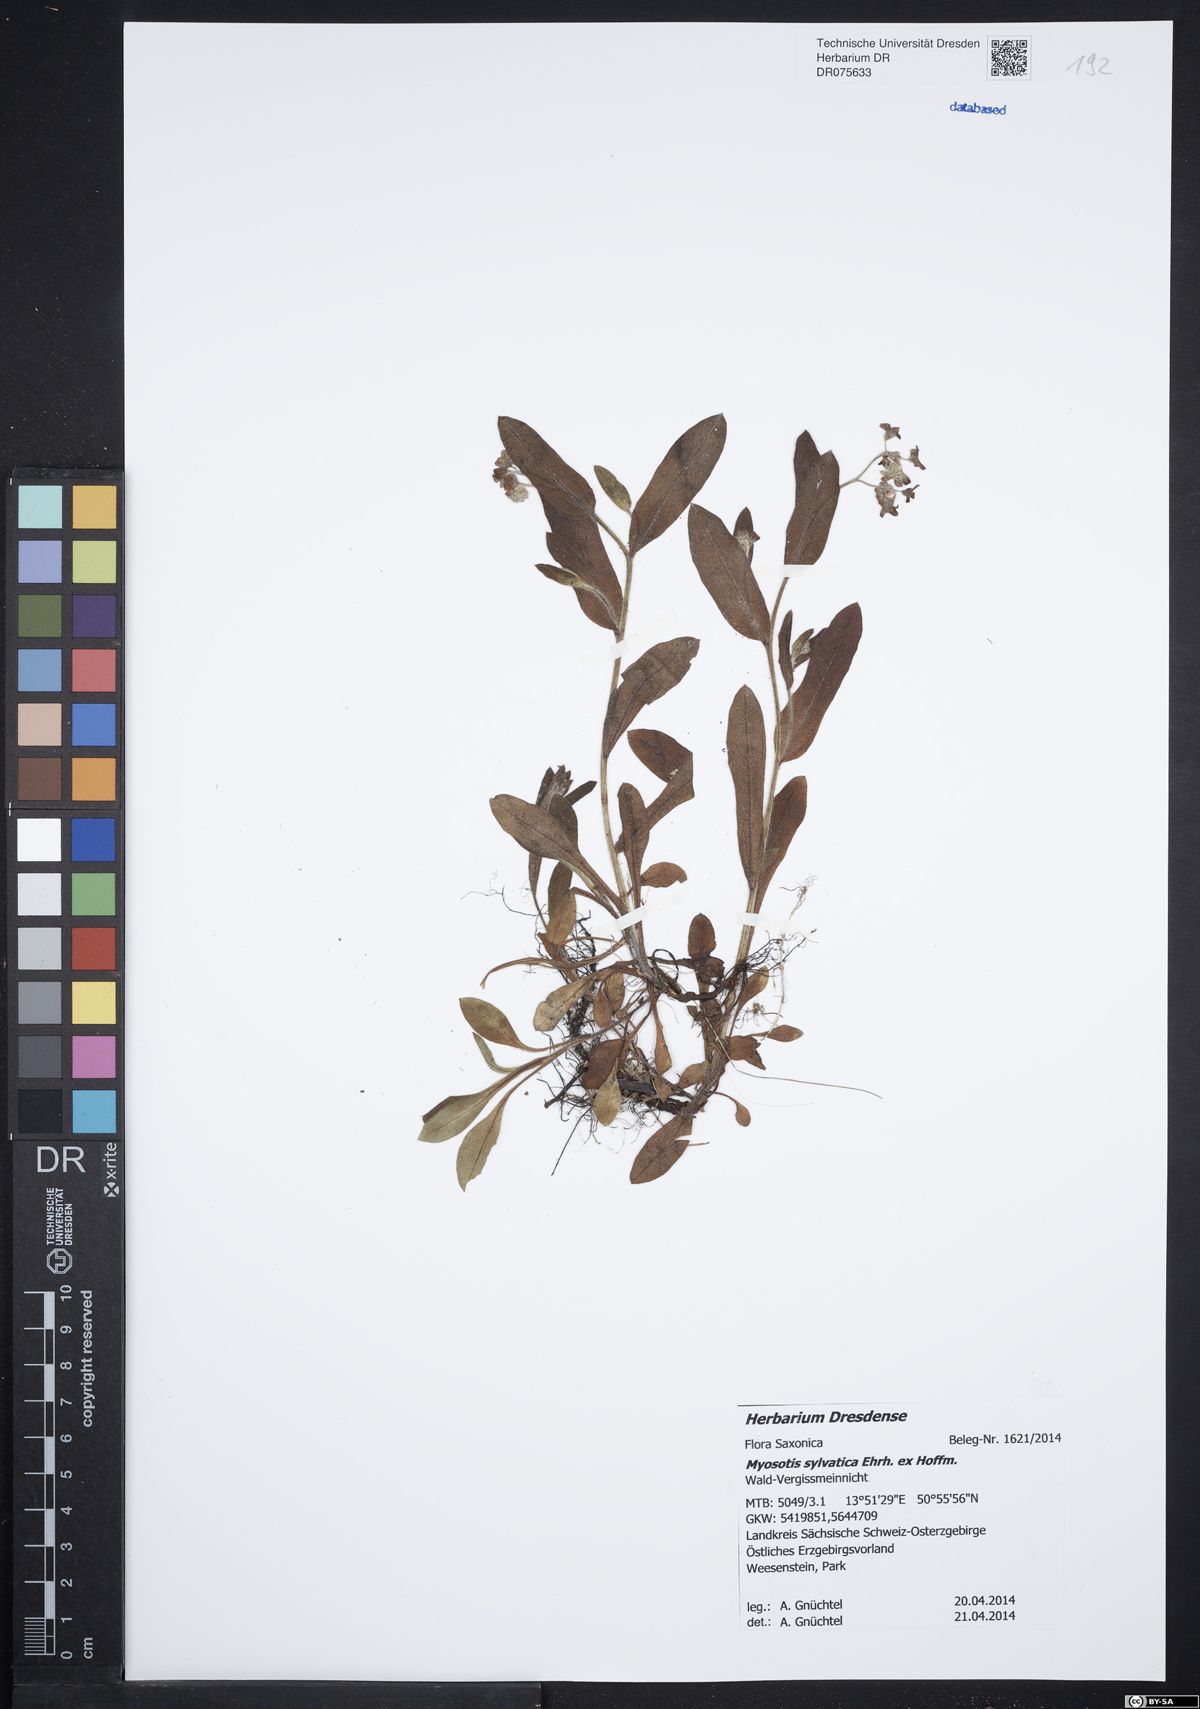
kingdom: Plantae
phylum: Tracheophyta
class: Magnoliopsida
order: Boraginales
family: Boraginaceae
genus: Myosotis
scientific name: Myosotis sylvatica
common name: Wood forget-me-not
